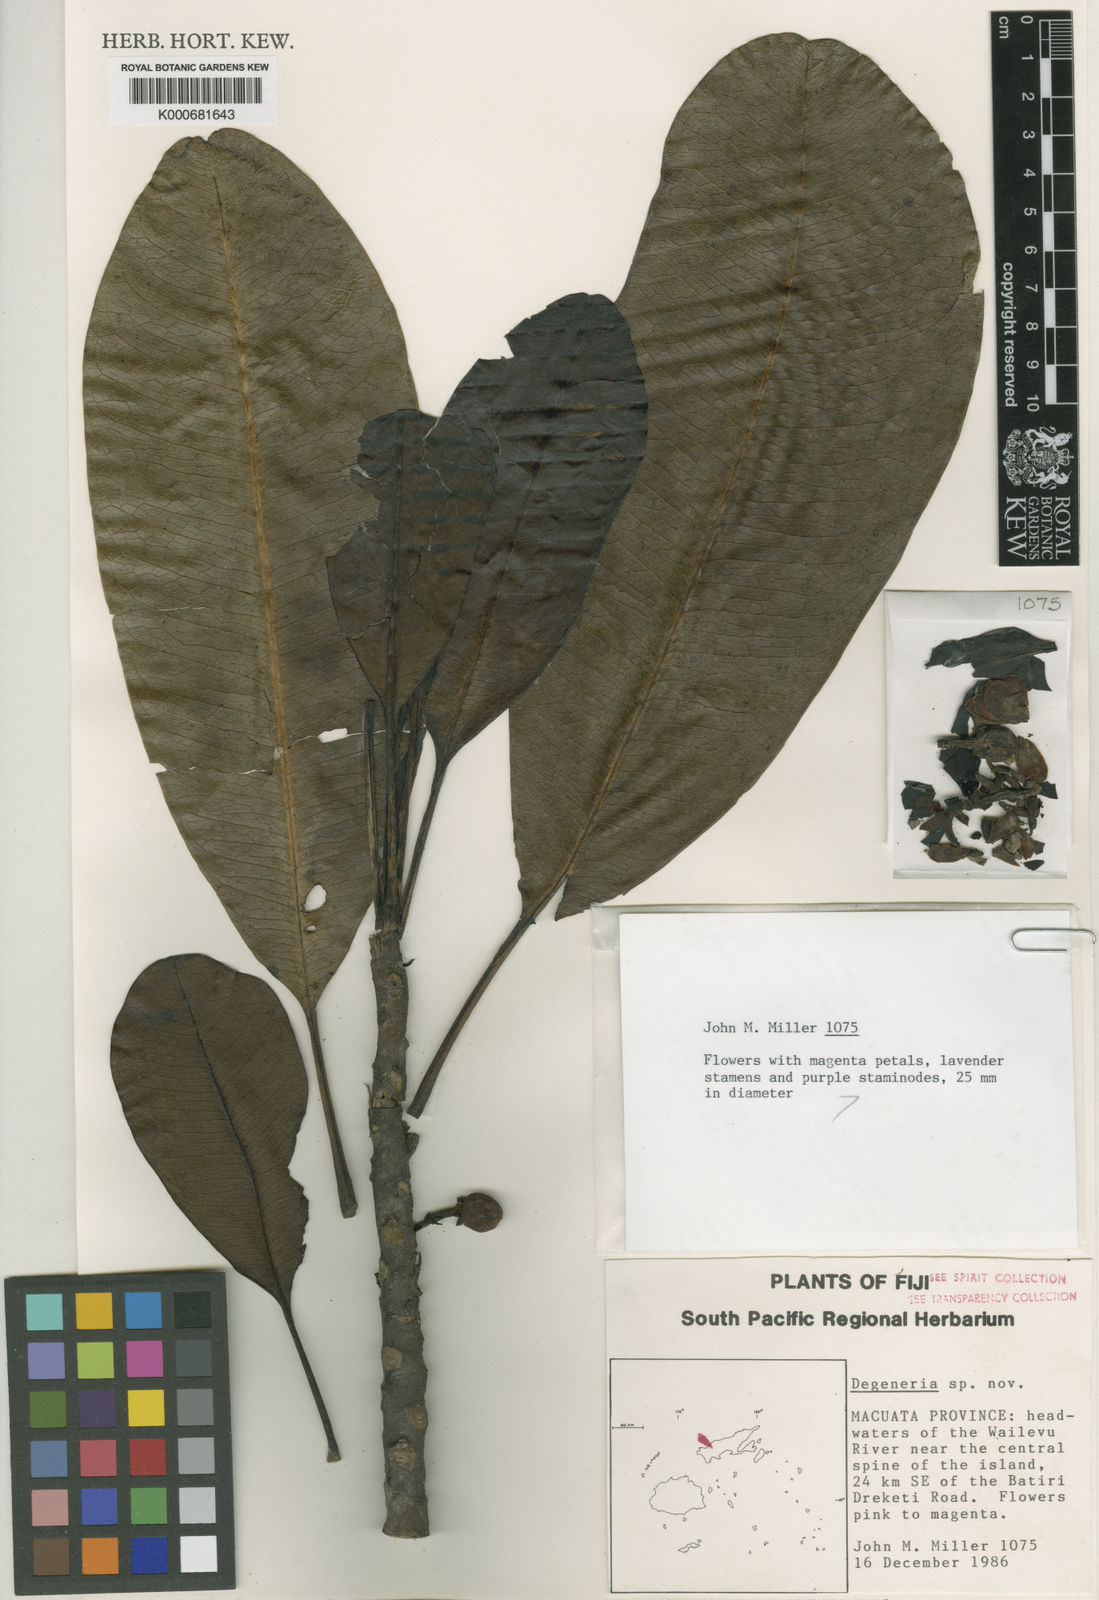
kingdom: Plantae
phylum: Tracheophyta
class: Magnoliopsida
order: Magnoliales
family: Degeneriaceae
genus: Degeneria
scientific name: Degeneria
